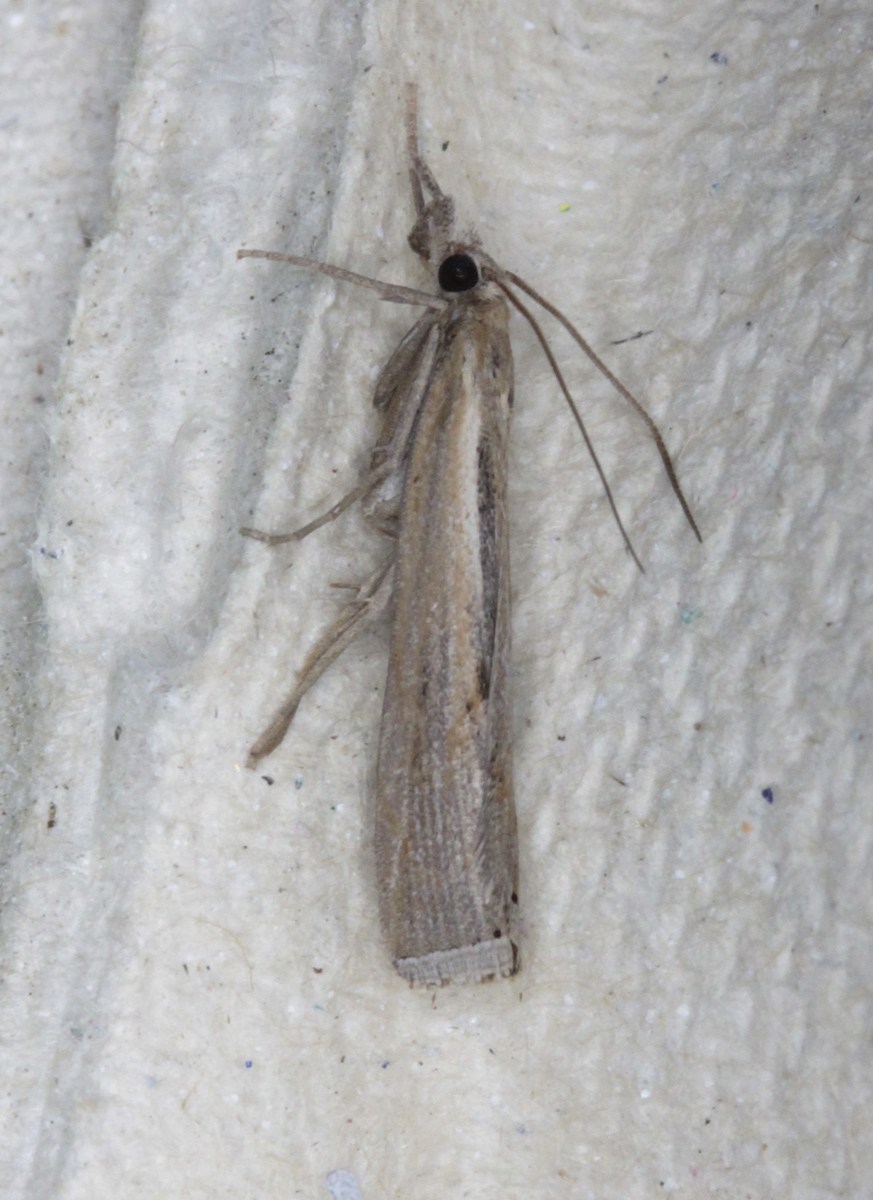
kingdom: Animalia
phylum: Arthropoda
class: Insecta
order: Lepidoptera
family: Crambidae
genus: Pediasia
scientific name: Pediasia aridella
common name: Salt-marsh grass-veneer
